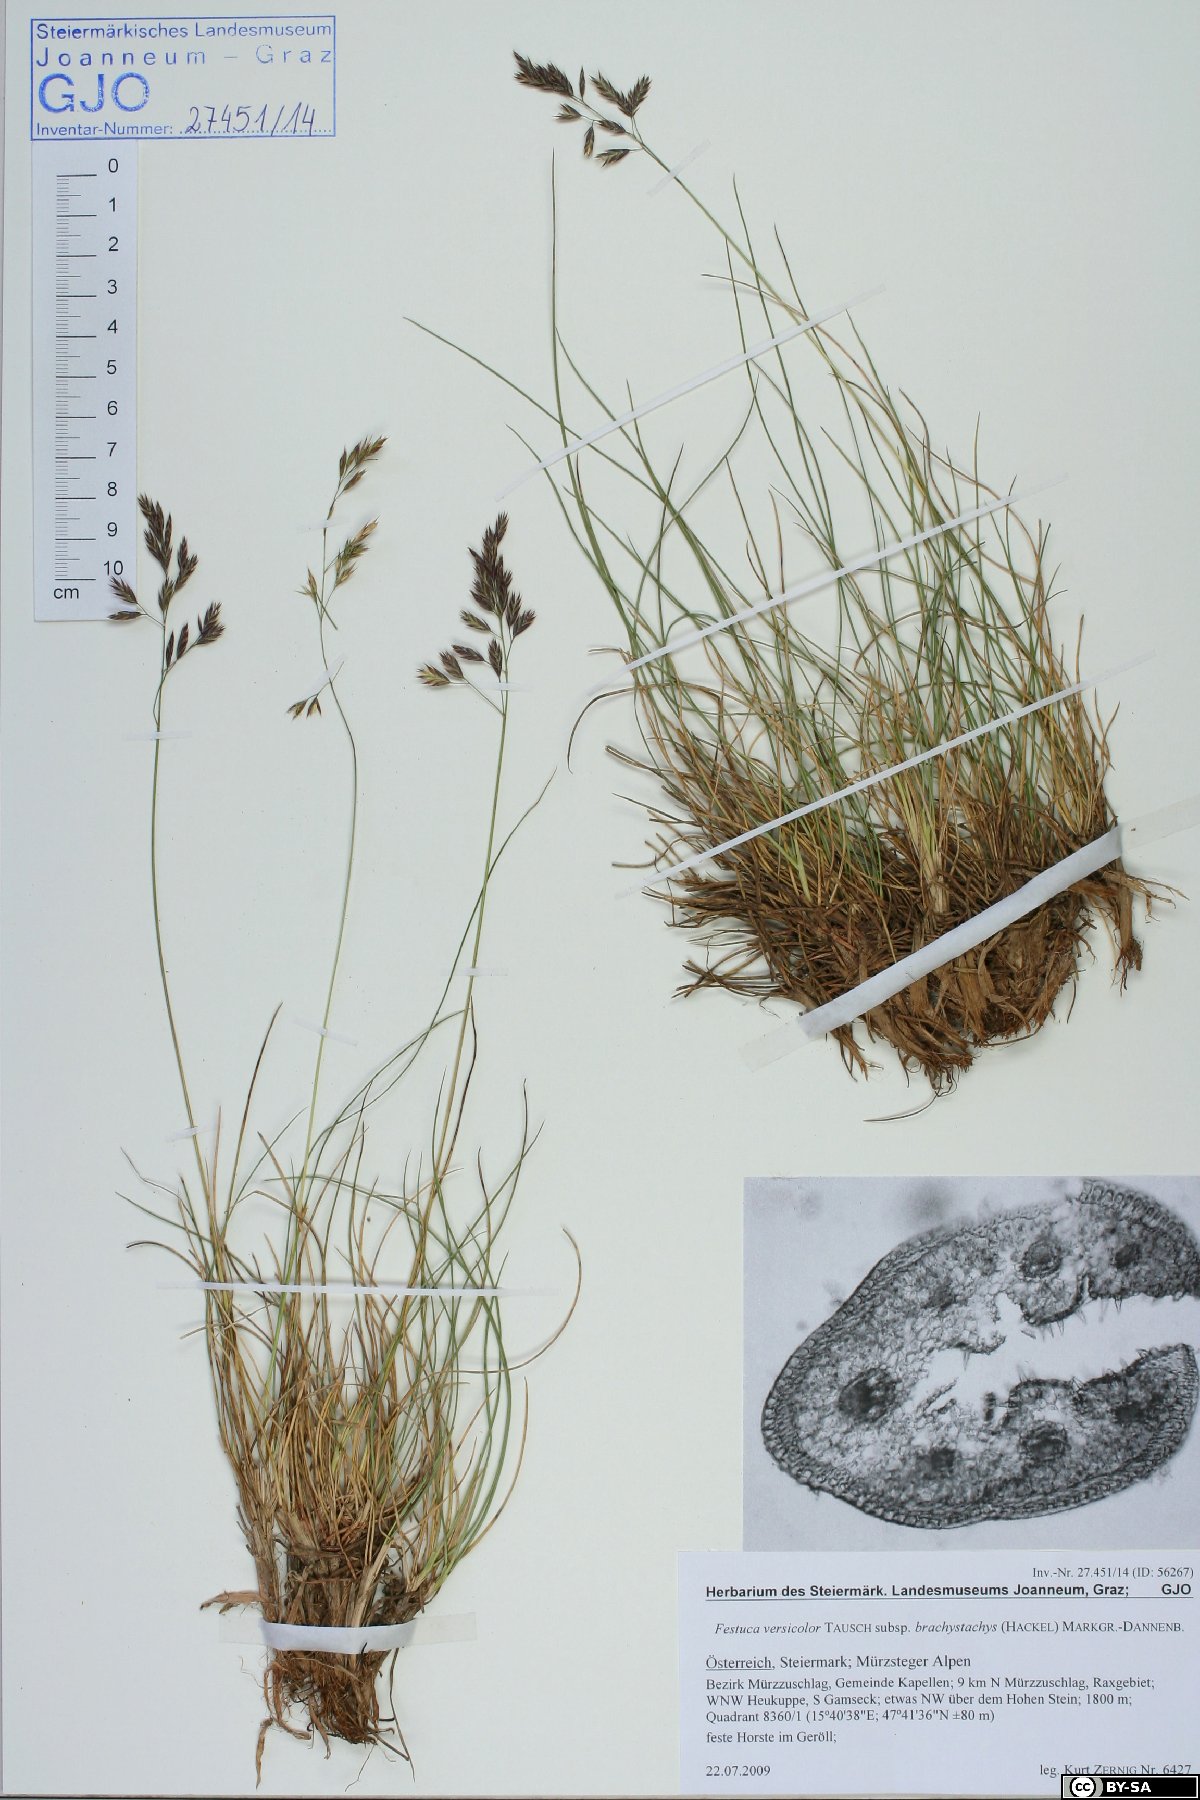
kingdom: Plantae
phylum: Tracheophyta
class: Liliopsida
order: Poales
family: Poaceae
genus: Festuca
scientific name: Festuca varia
